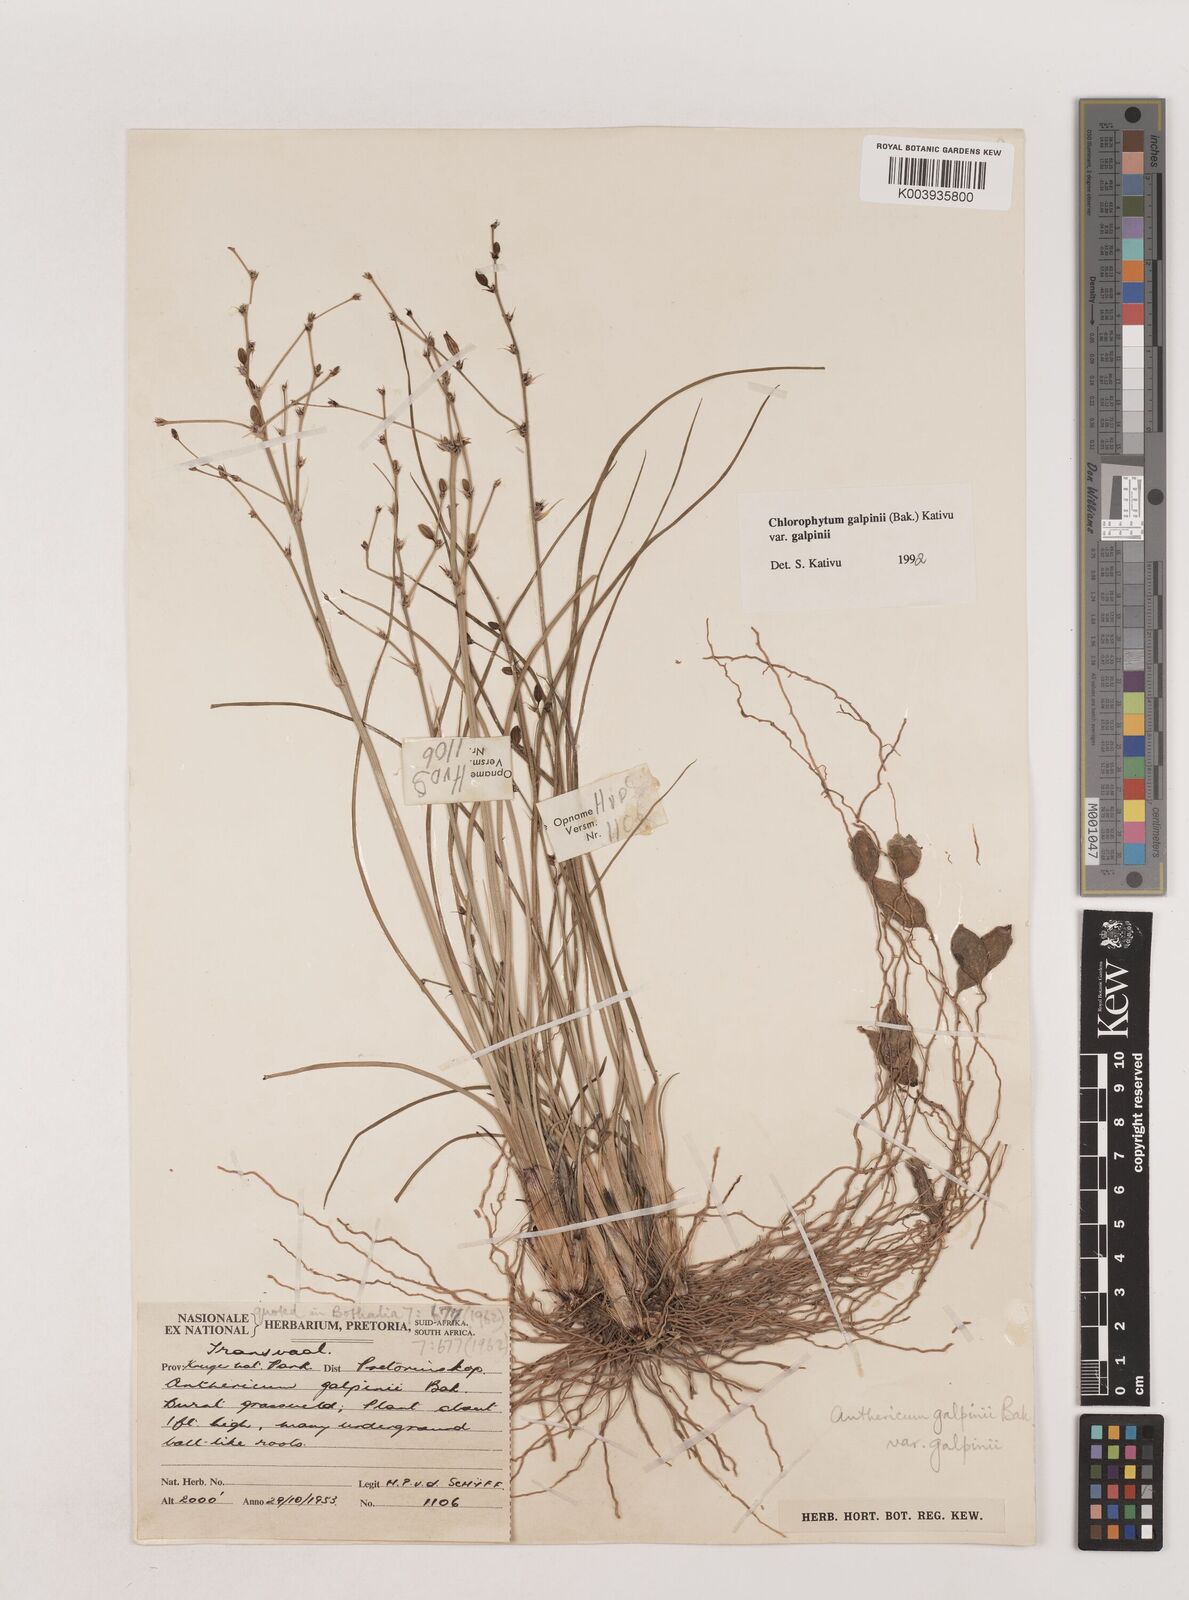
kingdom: Plantae
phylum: Tracheophyta
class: Liliopsida
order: Asparagales
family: Asparagaceae
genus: Chlorophytum
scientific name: Chlorophytum galpinii
